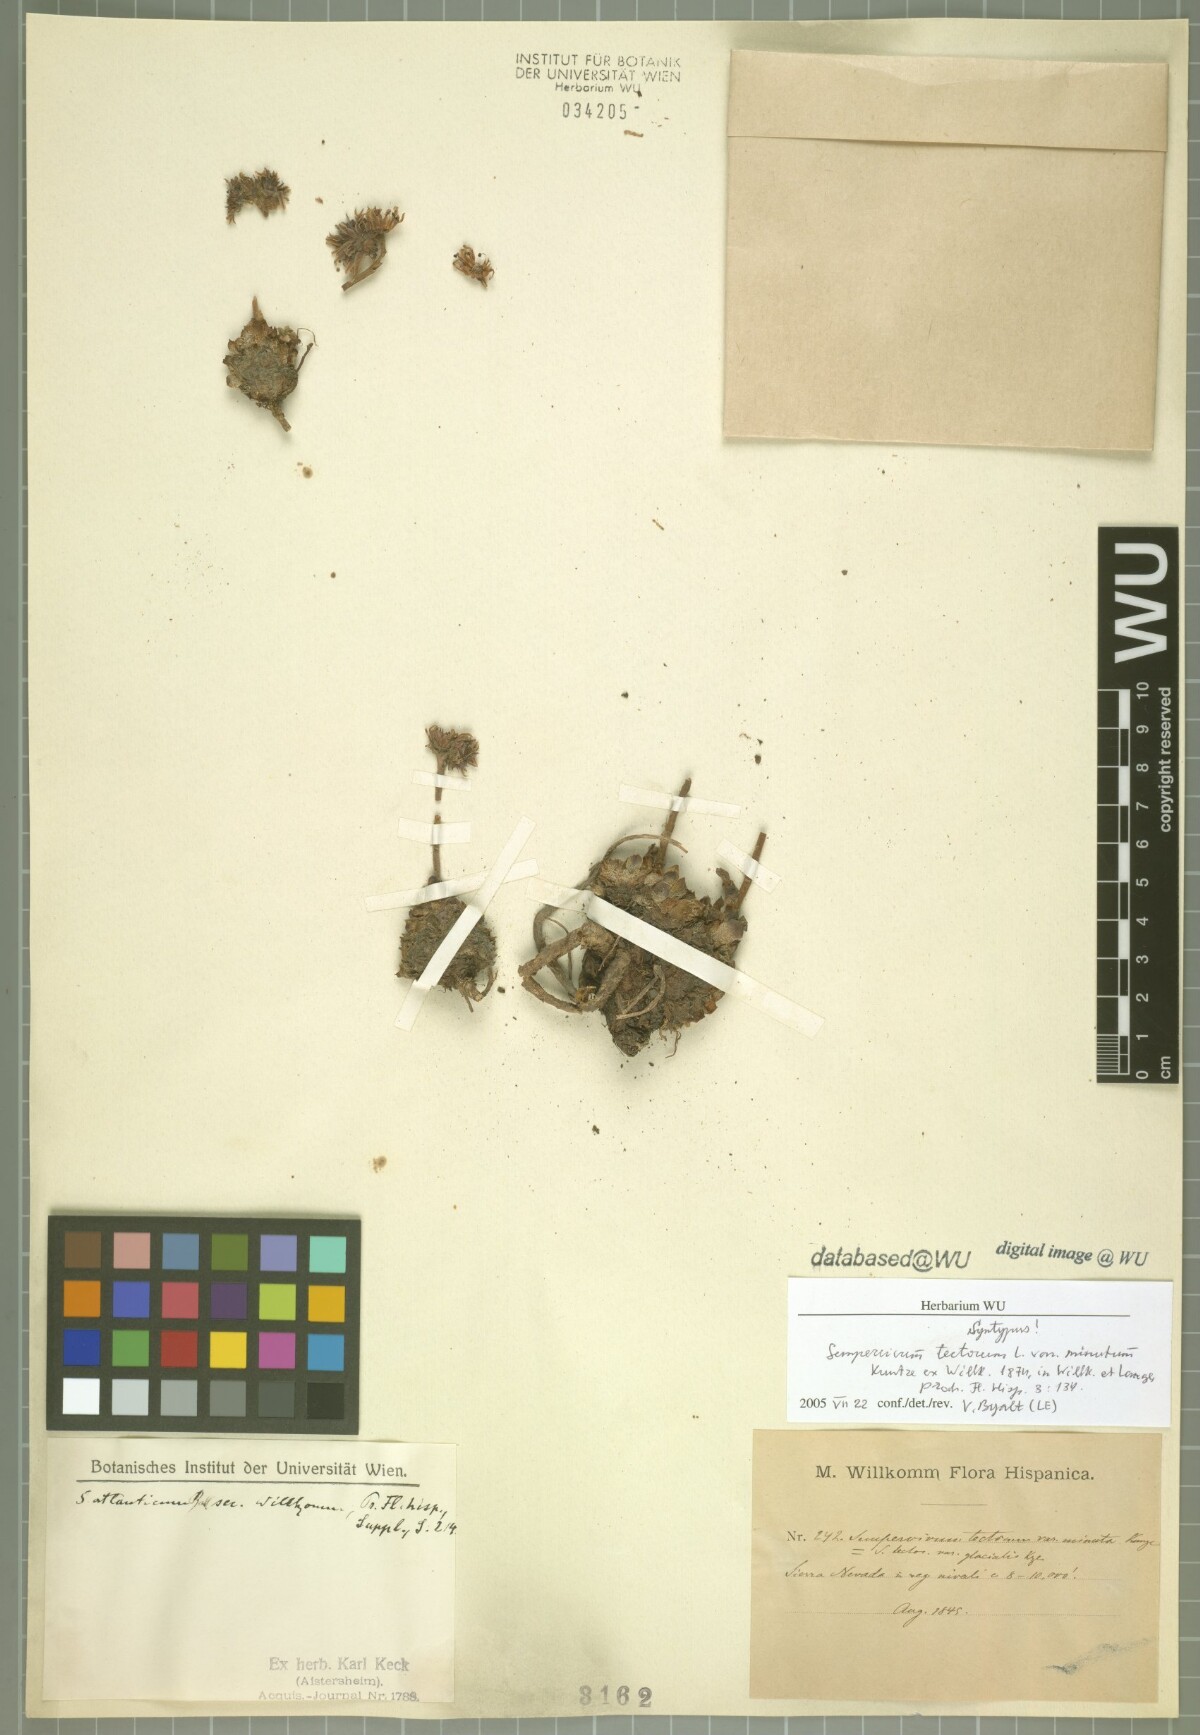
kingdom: Plantae
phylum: Tracheophyta
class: Magnoliopsida
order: Saxifragales
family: Crassulaceae
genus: Sempervivum
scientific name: Sempervivum minutum
